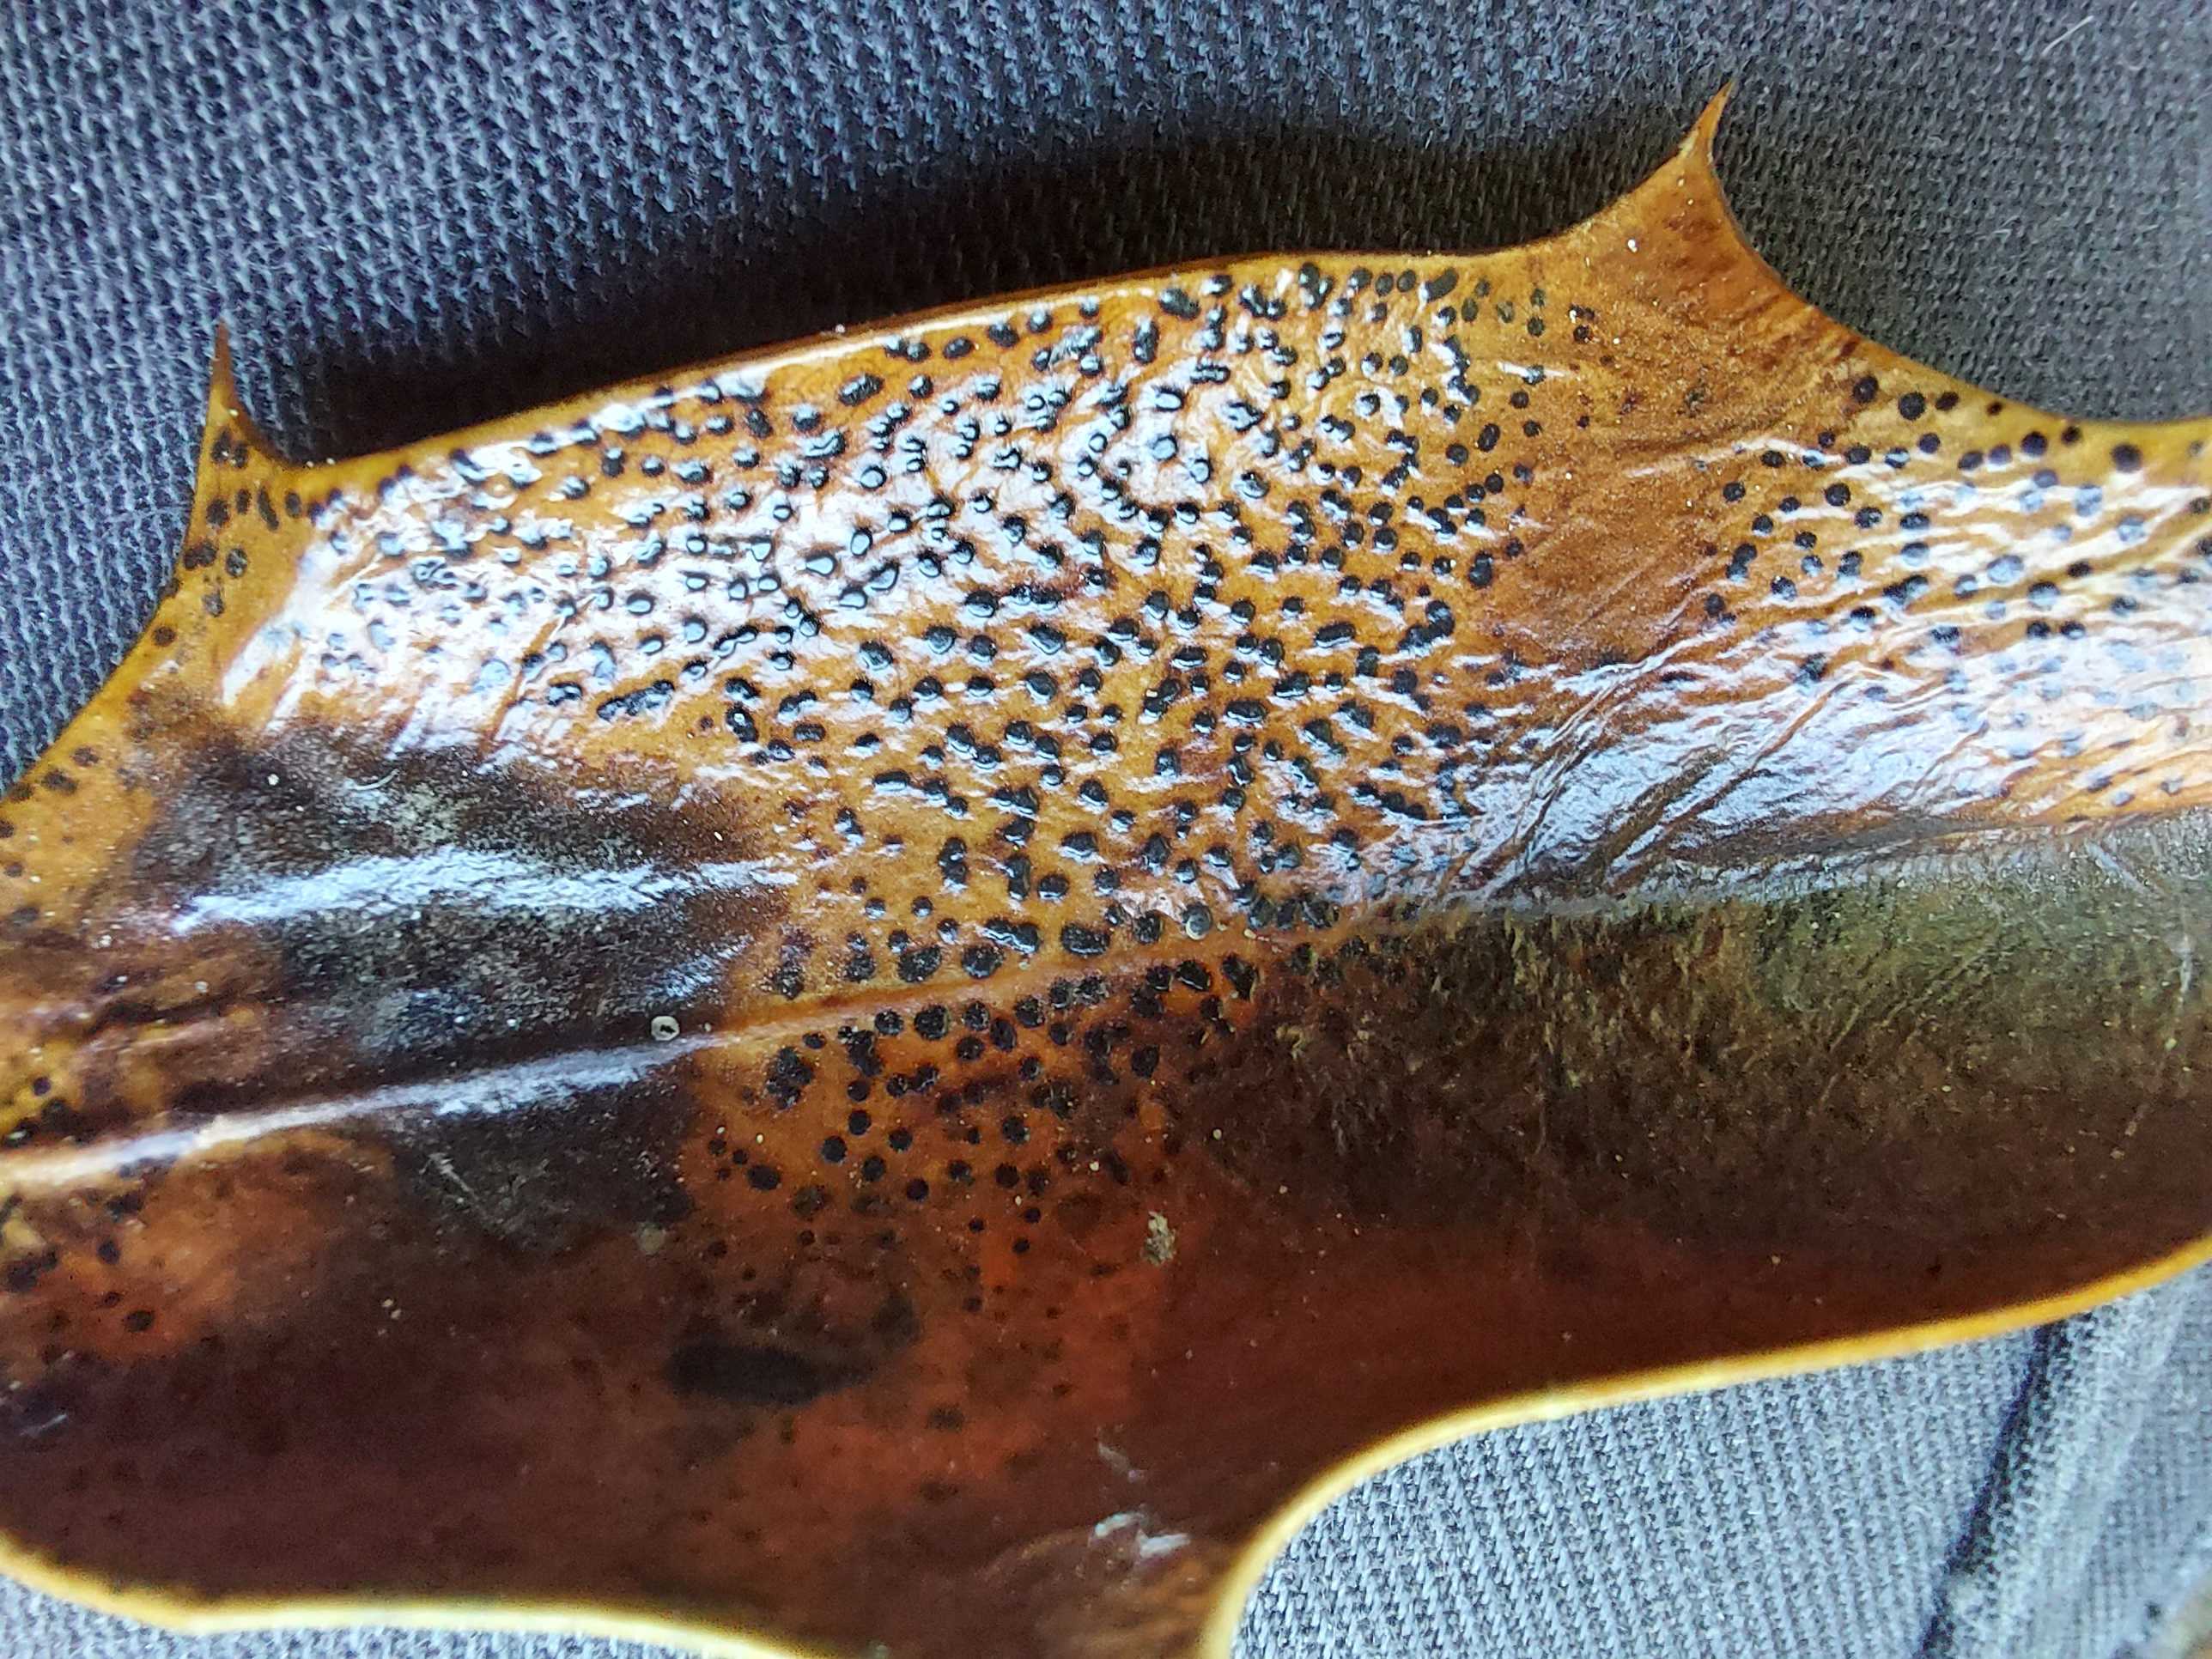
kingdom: Fungi
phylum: Ascomycota
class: Leotiomycetes
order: Phacidiales
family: Phacidiaceae
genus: Phacidium
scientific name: Phacidium lauri
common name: kristtorn-tandskive
